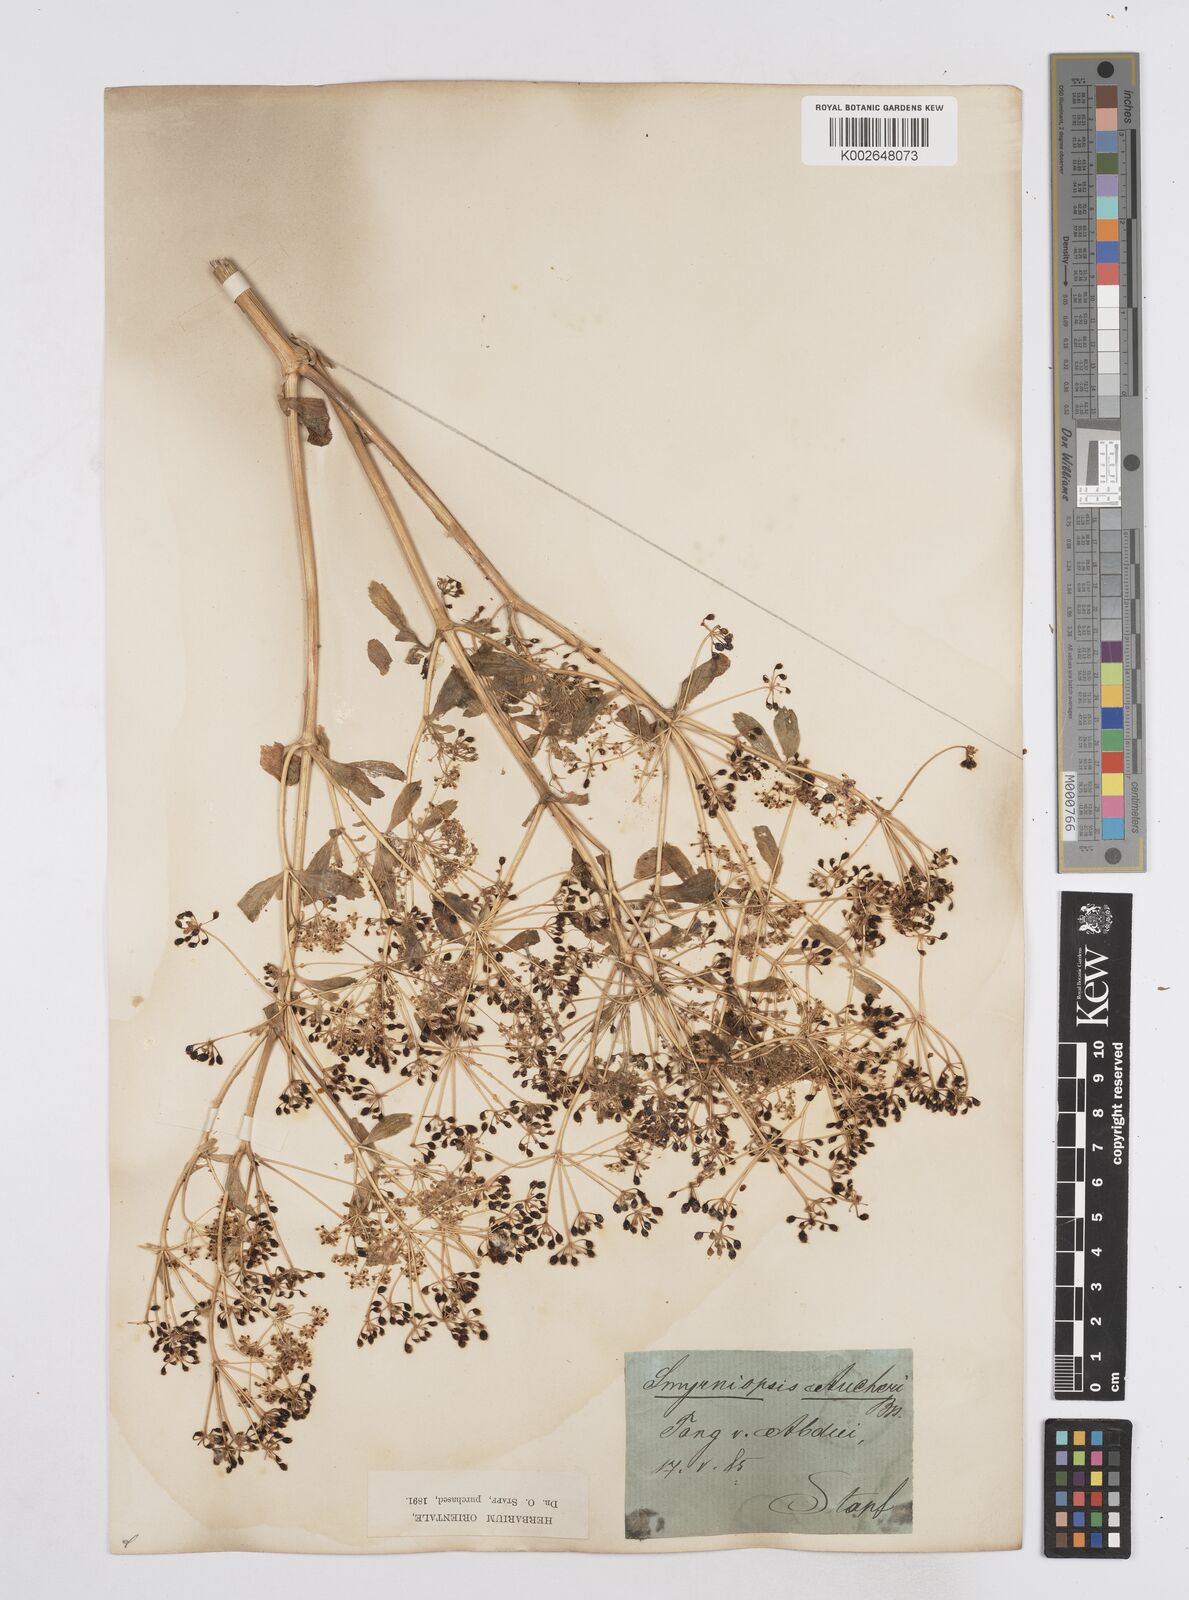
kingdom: Plantae
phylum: Tracheophyta
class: Magnoliopsida
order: Apiales
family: Apiaceae
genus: Smyrniopsis
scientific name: Smyrniopsis aucheri
